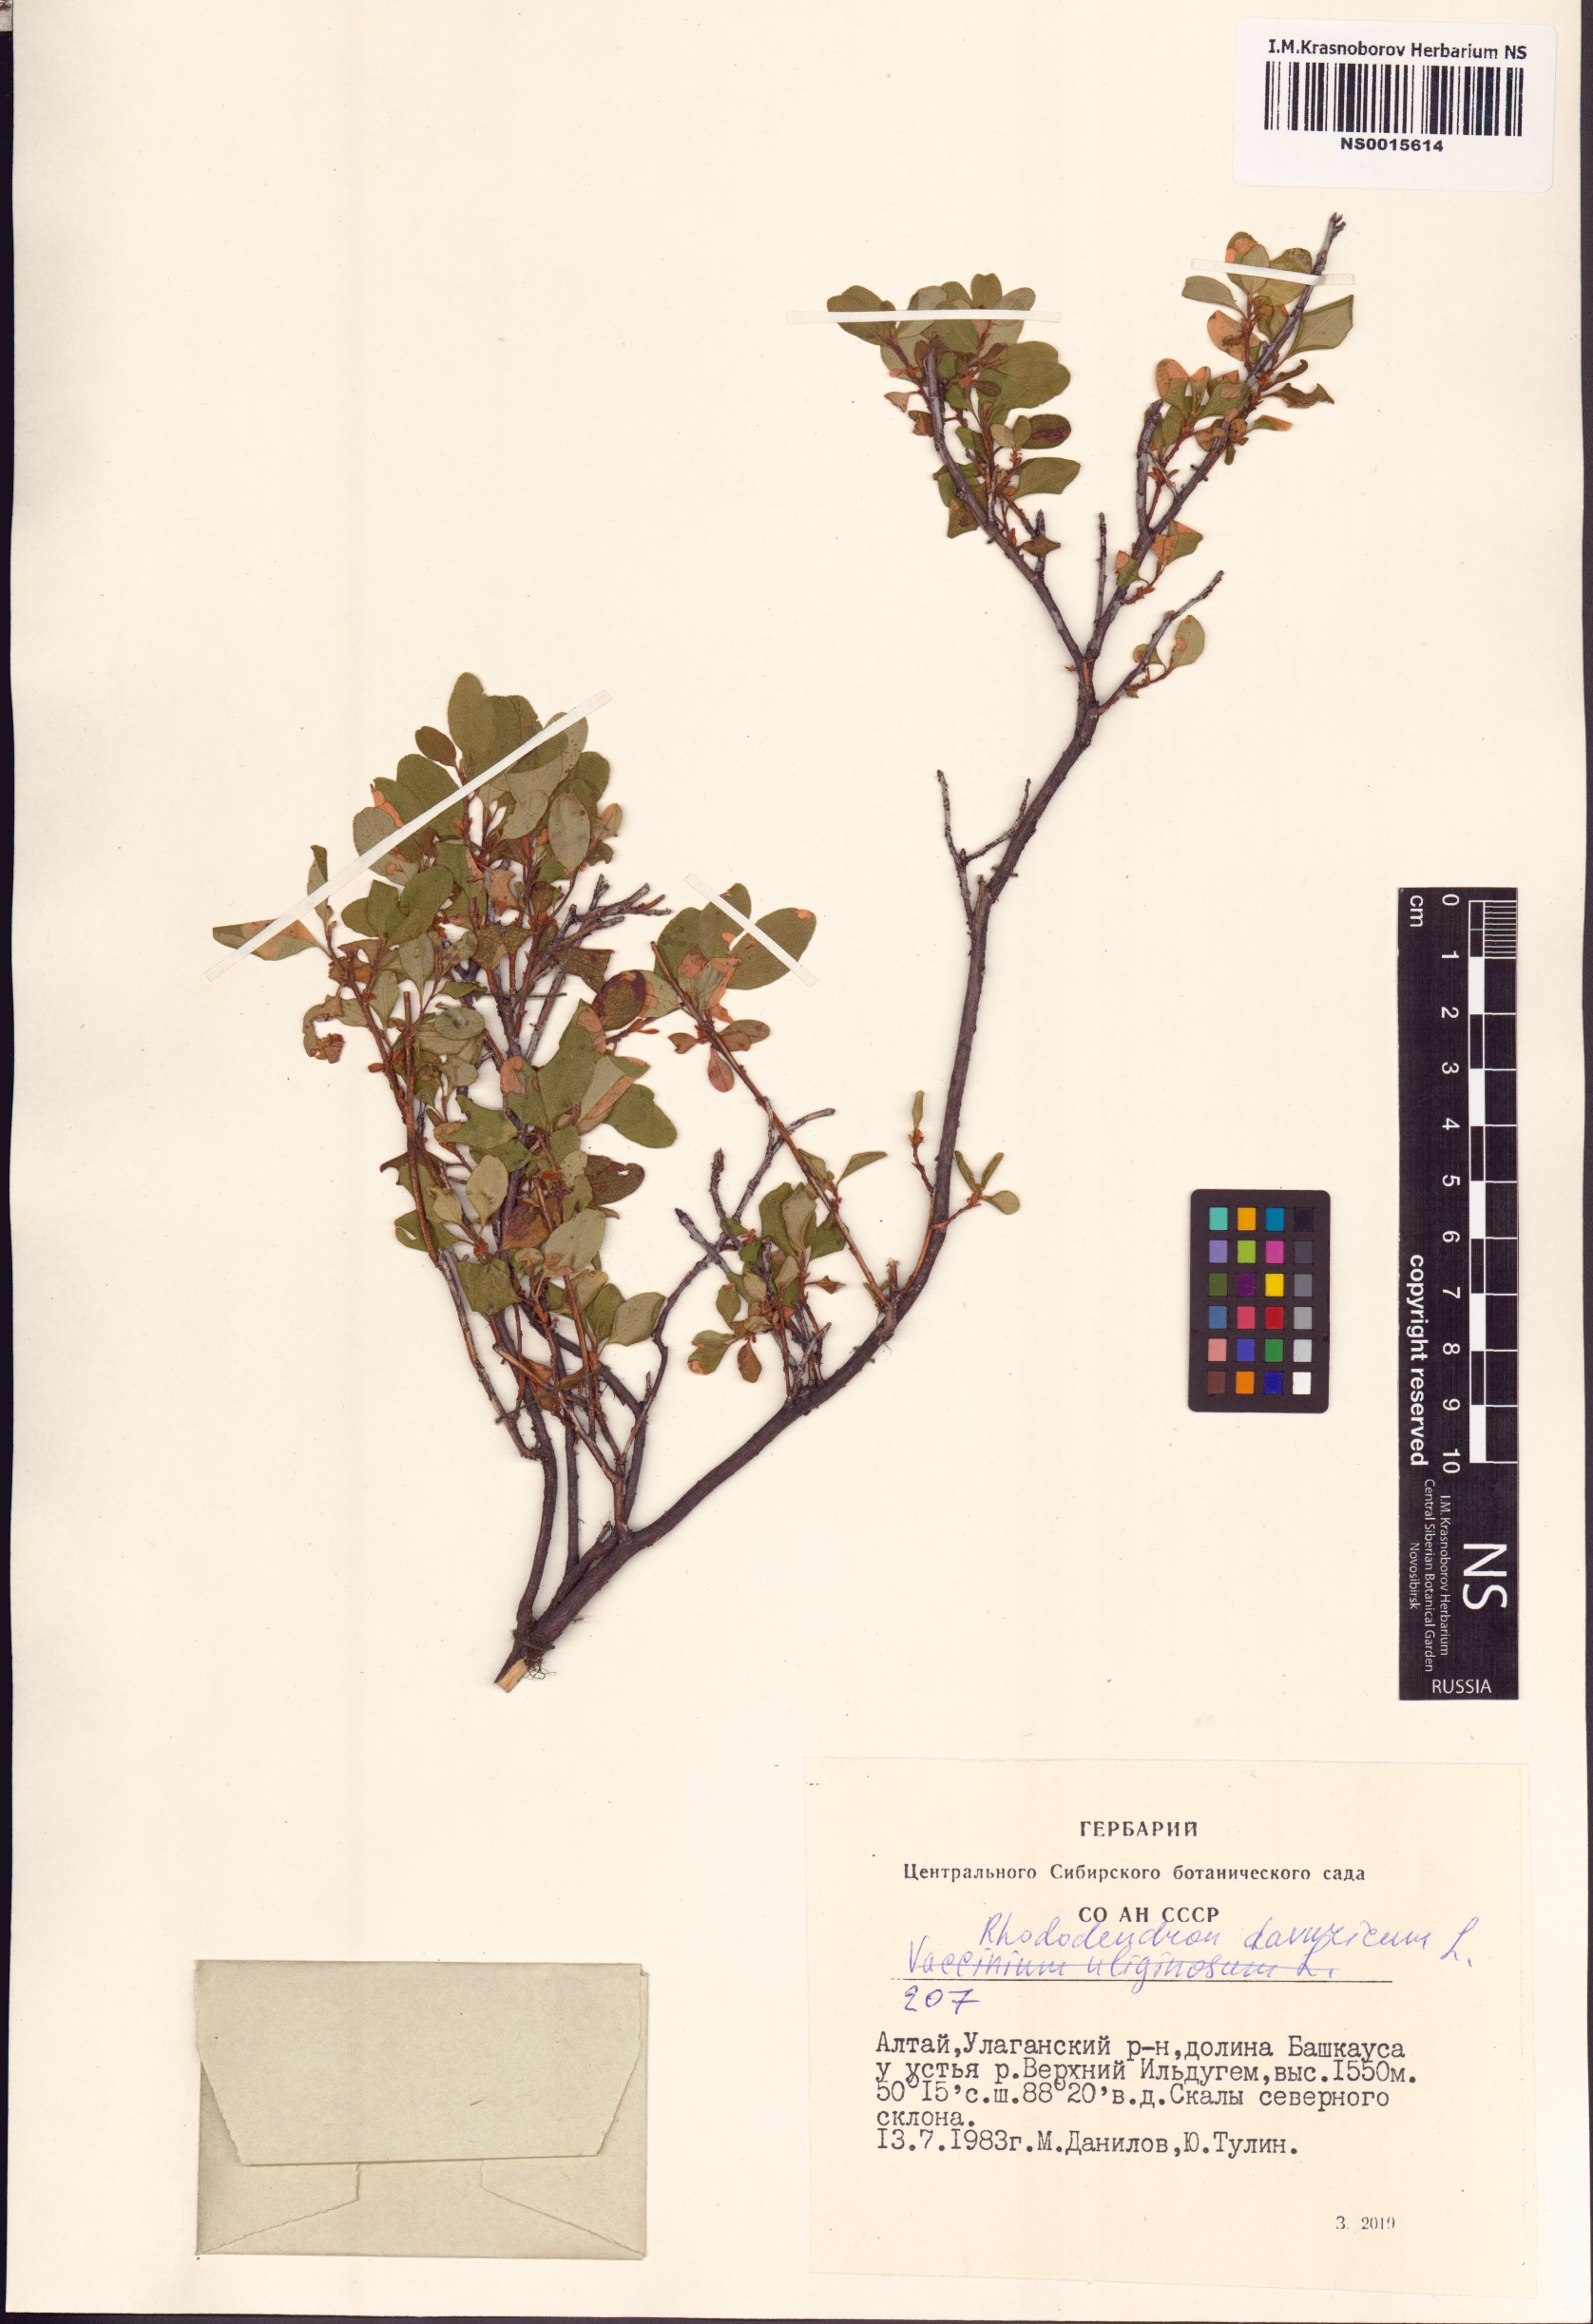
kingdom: Plantae
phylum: Tracheophyta
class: Magnoliopsida
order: Ericales
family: Ericaceae
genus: Rhododendron
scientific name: Rhododendron dauricum
